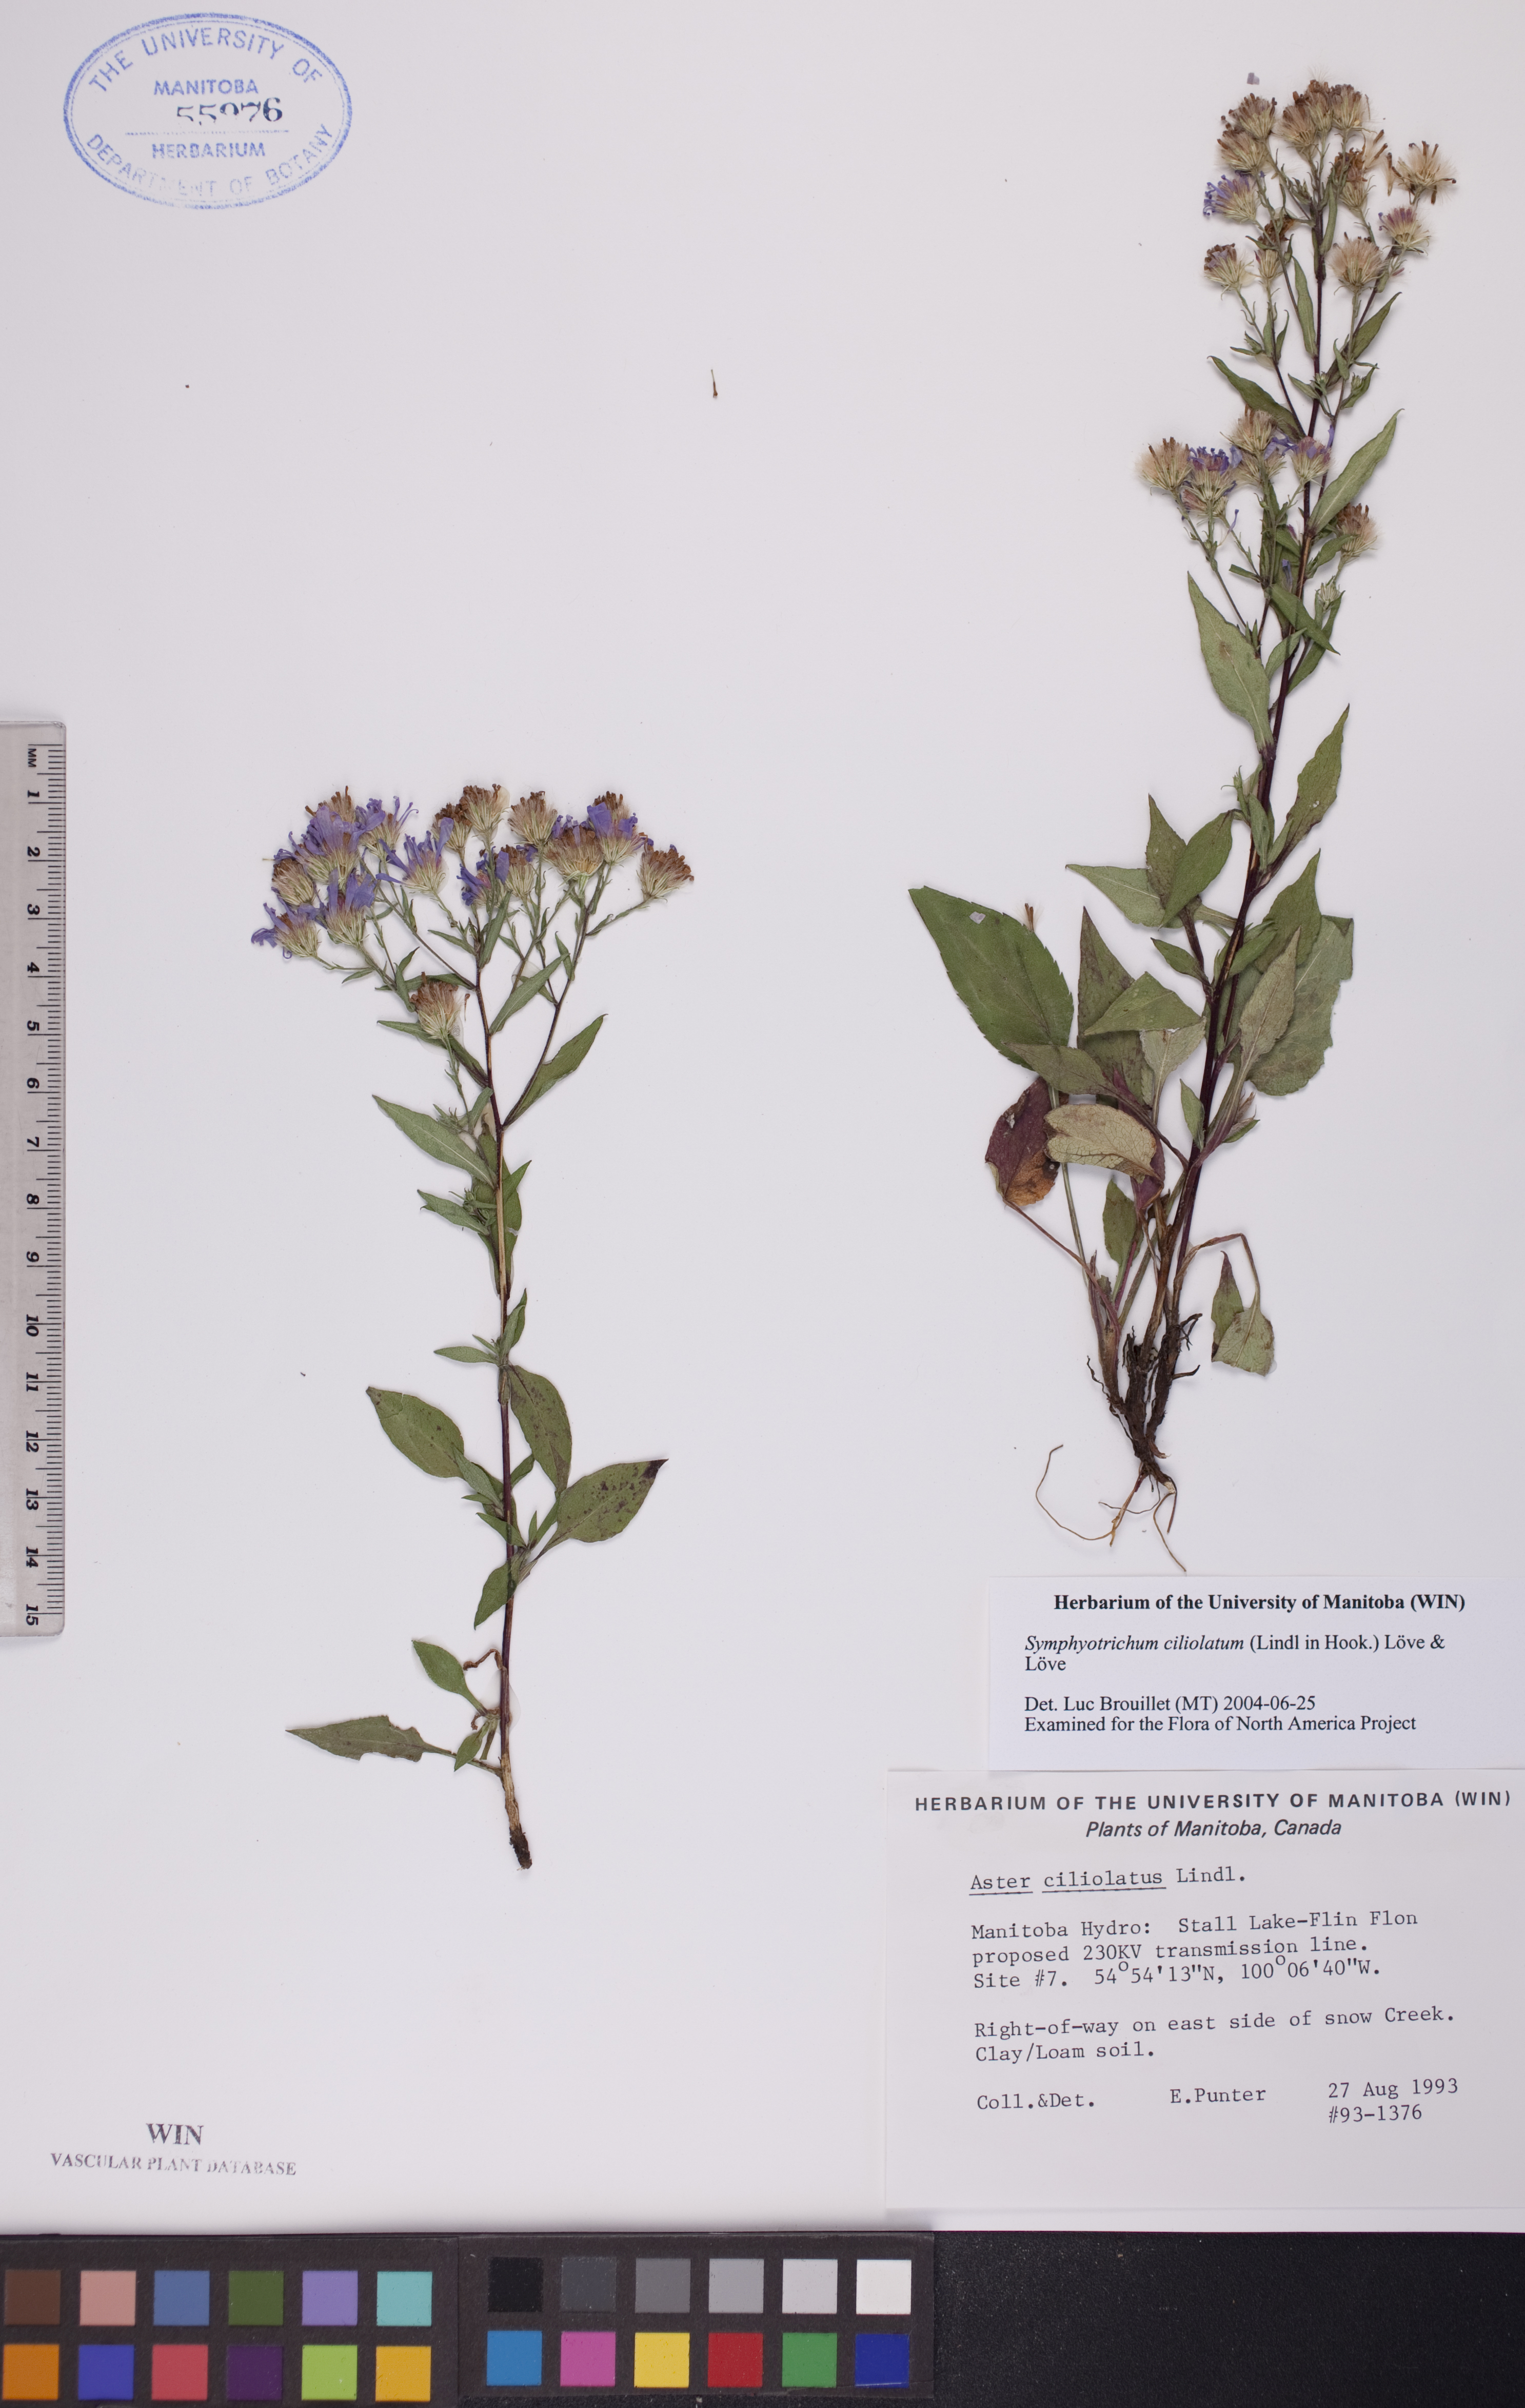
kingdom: Plantae
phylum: Tracheophyta
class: Magnoliopsida
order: Asterales
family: Asteraceae
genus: Symphyotrichum
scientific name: Symphyotrichum ciliolatum
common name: Fringed blue aster
